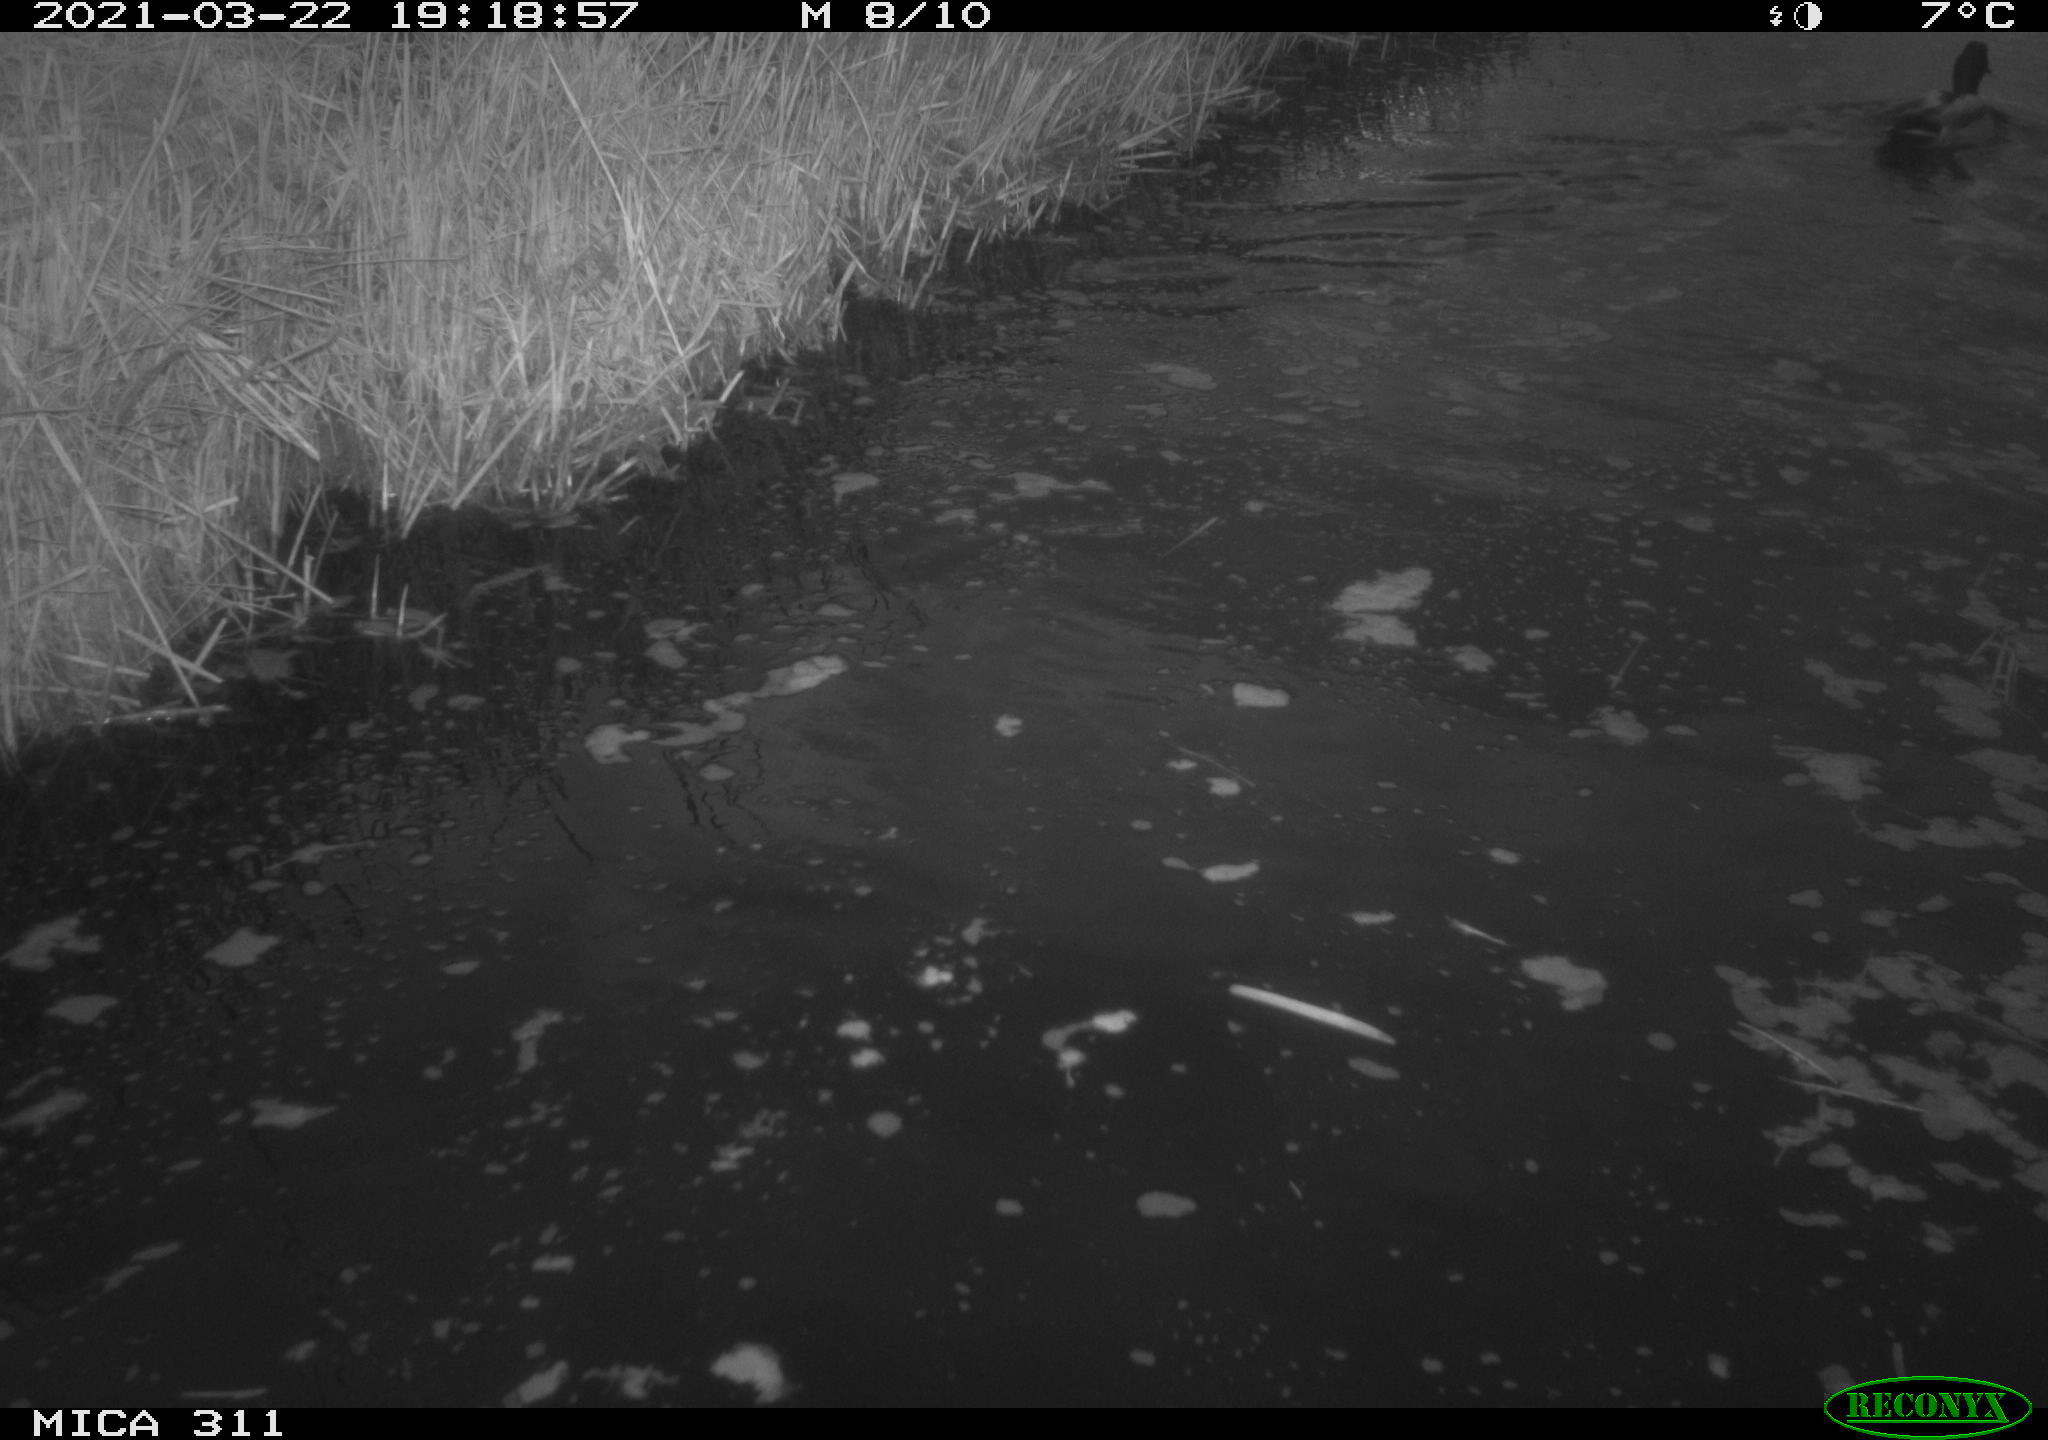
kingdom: Animalia
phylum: Chordata
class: Aves
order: Anseriformes
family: Anatidae
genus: Anas
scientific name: Anas platyrhynchos
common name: Mallard
